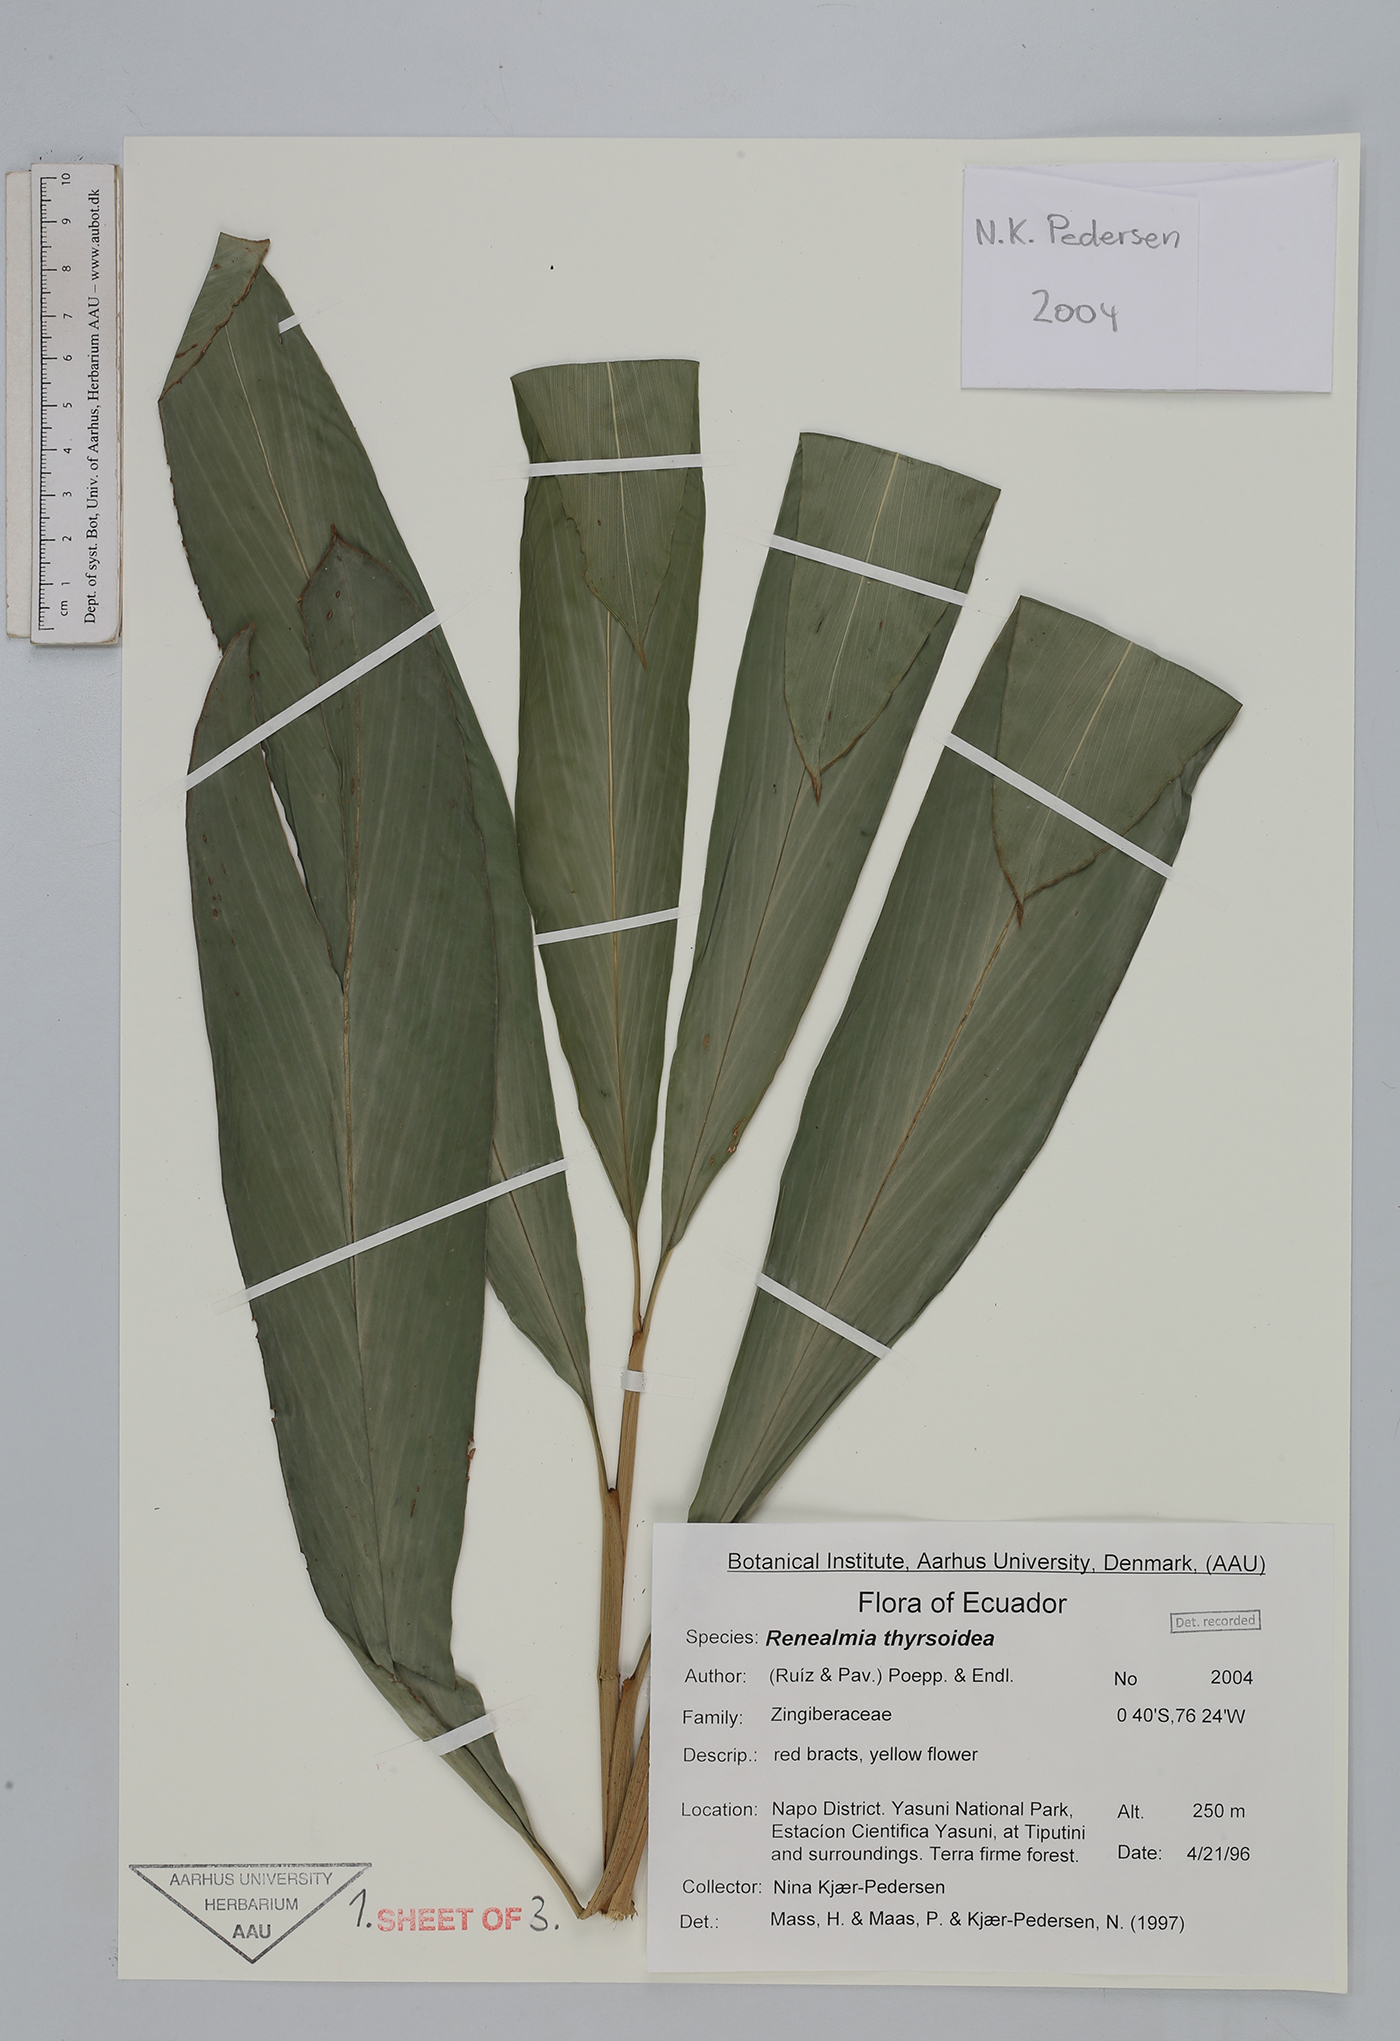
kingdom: Plantae
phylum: Tracheophyta
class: Liliopsida
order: Zingiberales
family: Zingiberaceae
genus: Renealmia
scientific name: Renealmia thyrsoidea
